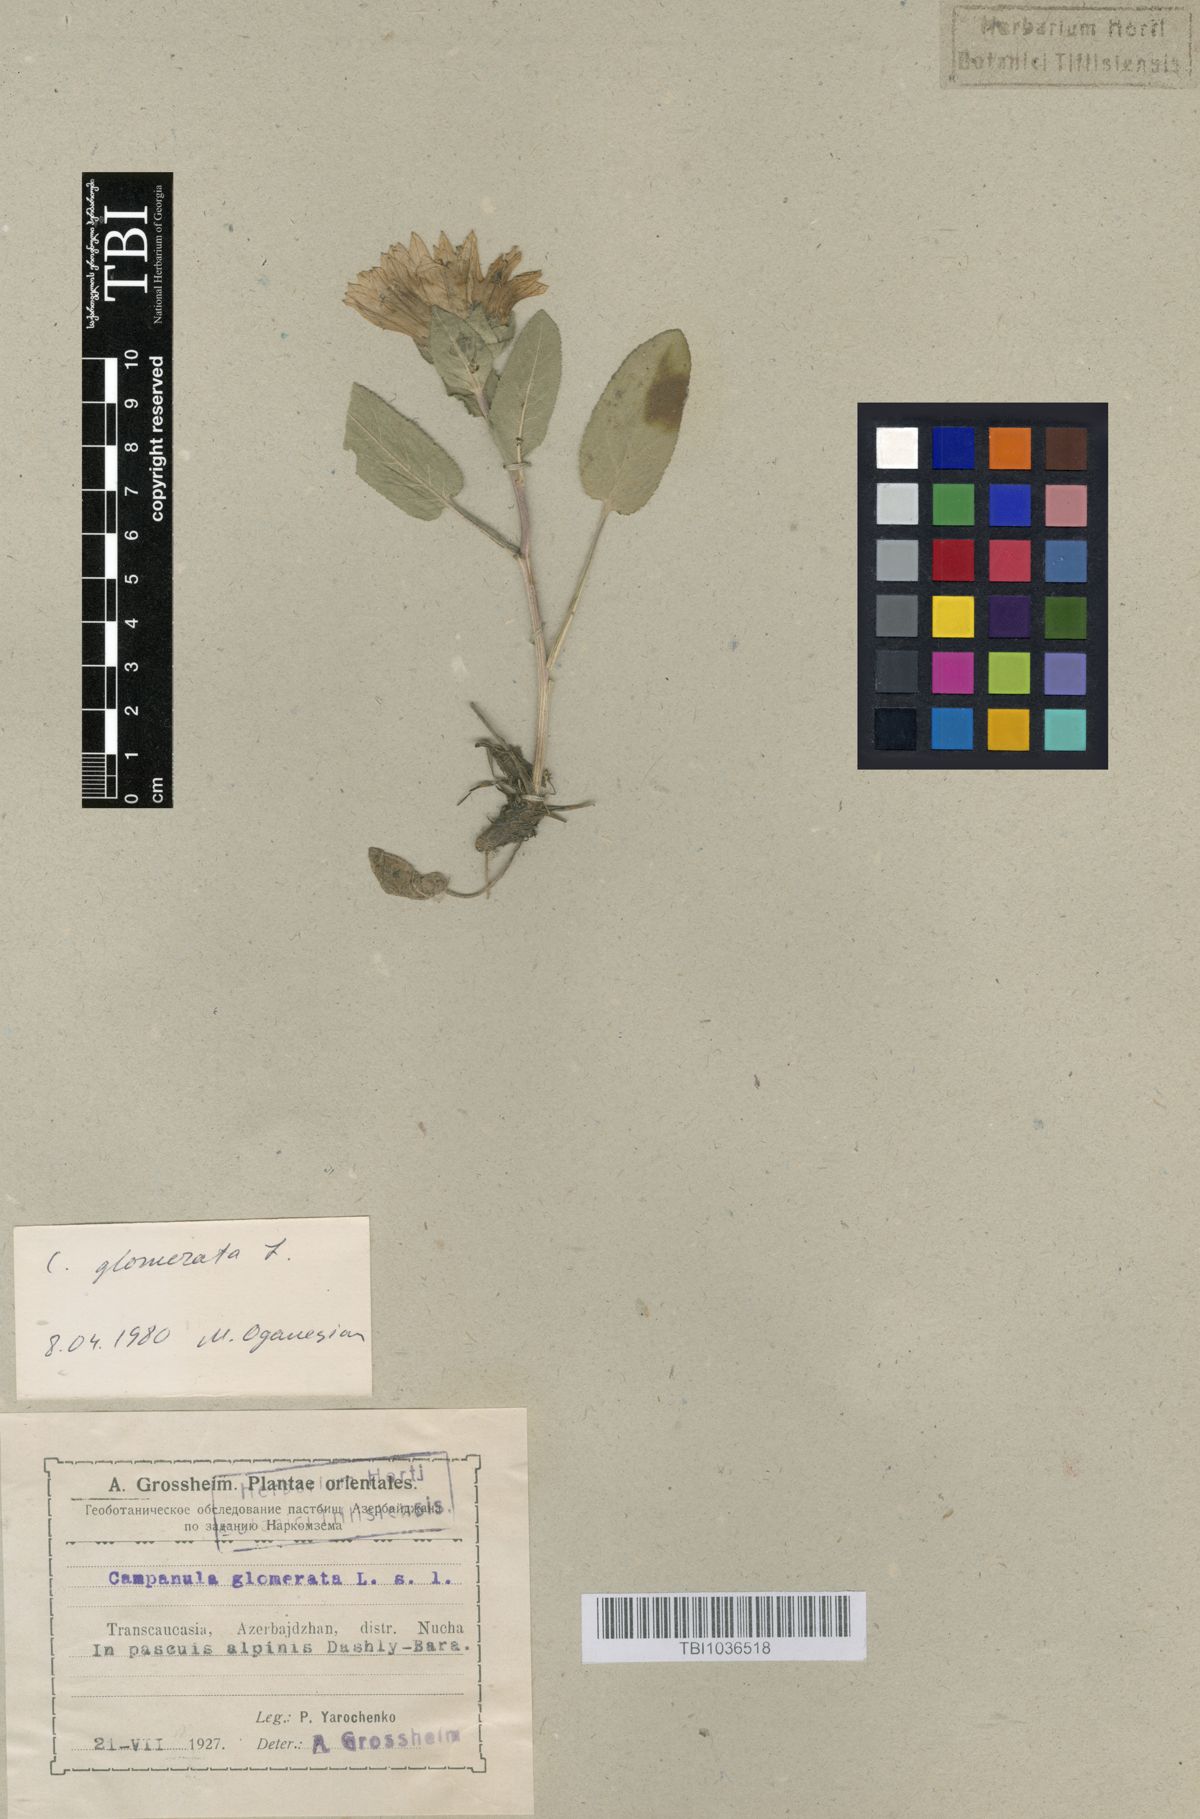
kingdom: Plantae
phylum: Tracheophyta
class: Magnoliopsida
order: Asterales
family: Campanulaceae
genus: Campanula
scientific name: Campanula glomerata
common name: Clustered bellflower
